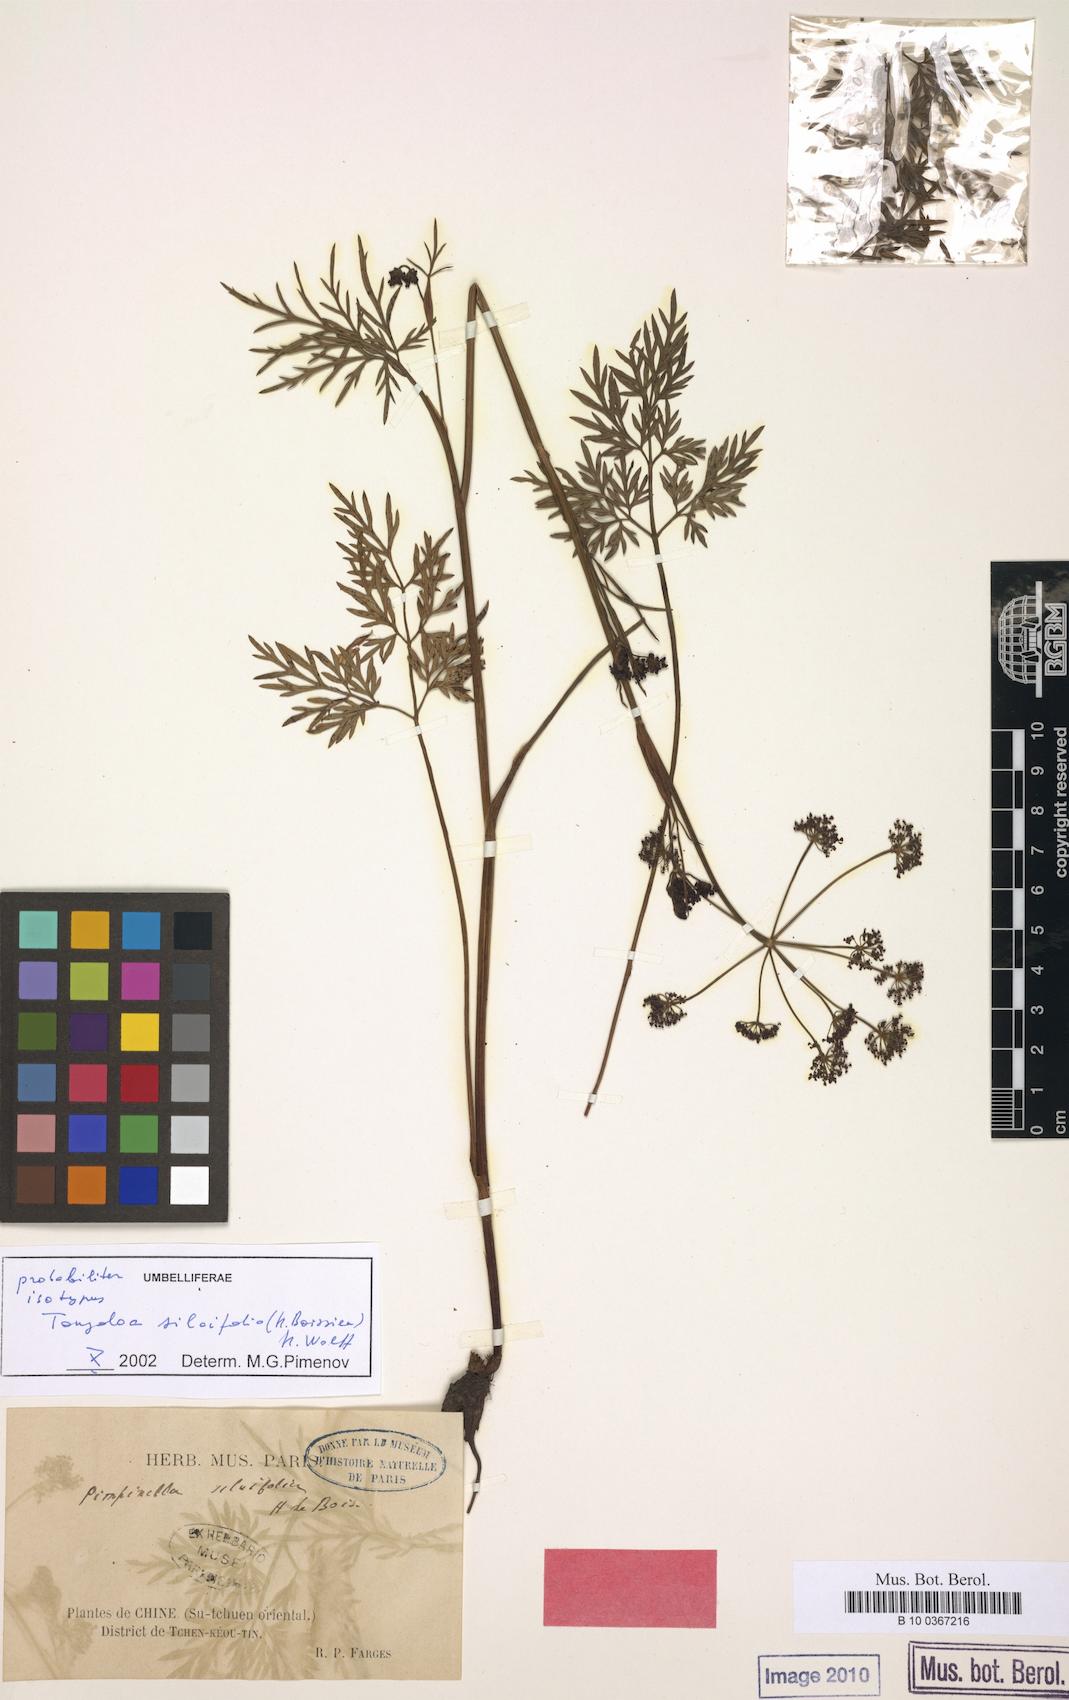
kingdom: Plantae
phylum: Tracheophyta
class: Magnoliopsida
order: Apiales
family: Apiaceae
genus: Tongoloa
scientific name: Tongoloa silaifolia
